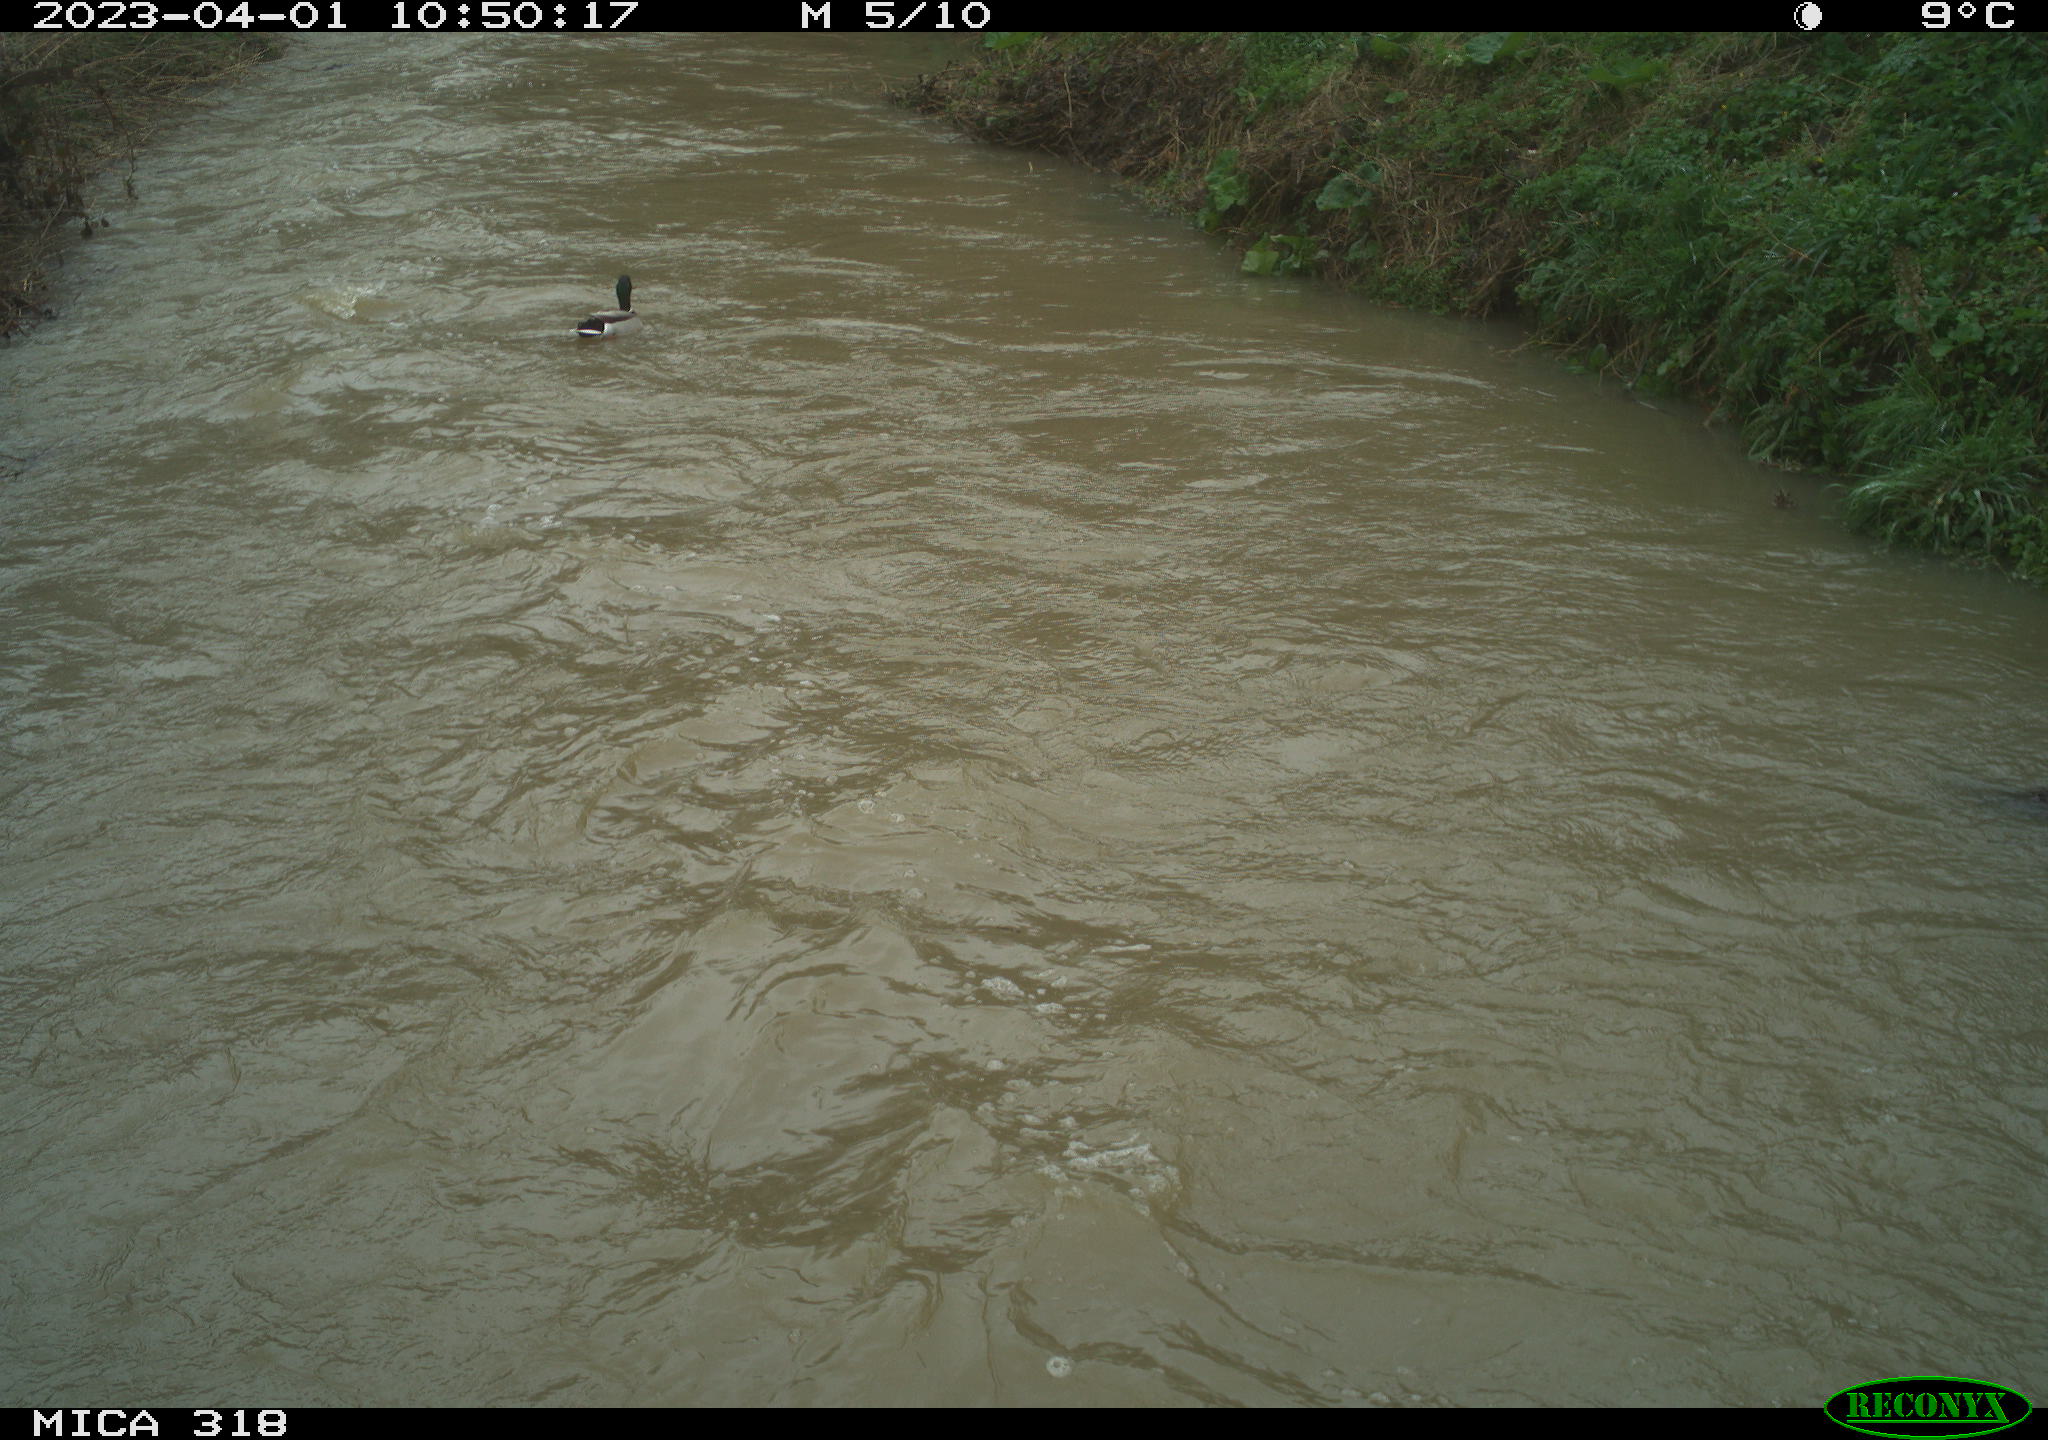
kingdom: Animalia
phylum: Chordata
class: Aves
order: Anseriformes
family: Anatidae
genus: Anas
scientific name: Anas
